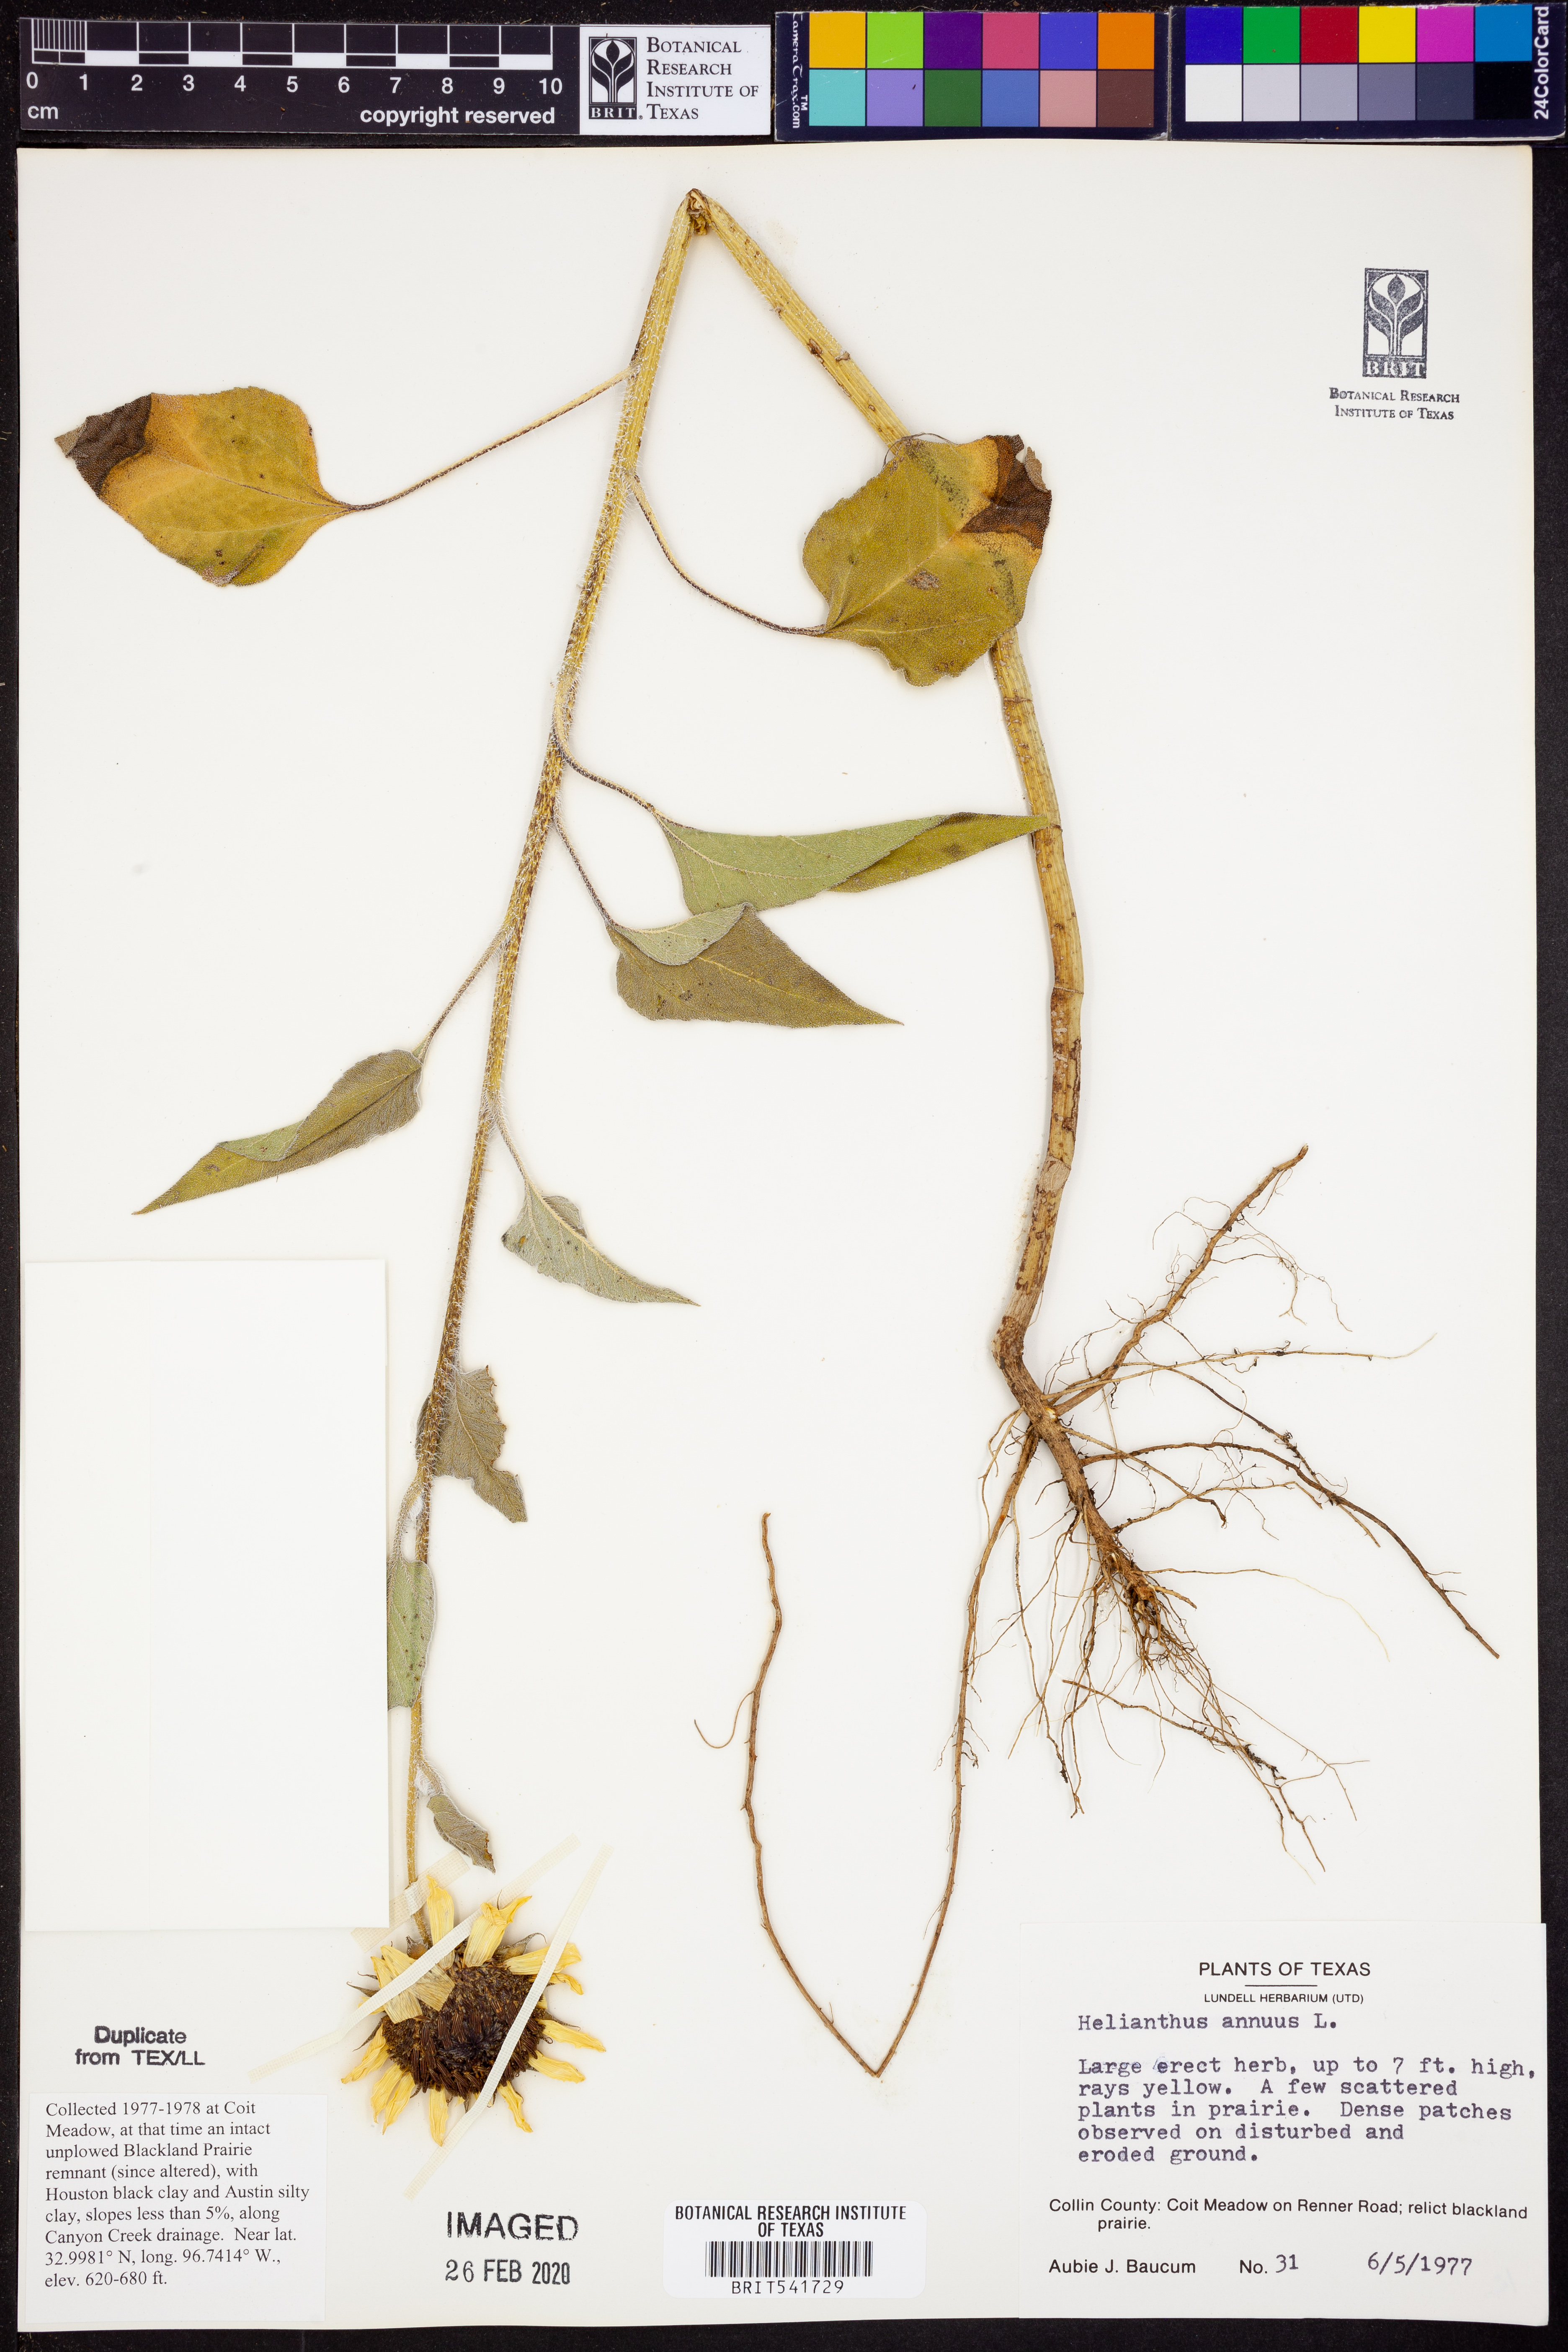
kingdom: Plantae
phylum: Tracheophyta
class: Magnoliopsida
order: Asterales
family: Asteraceae
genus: Helianthus
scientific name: Helianthus annuus
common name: Sunflower
